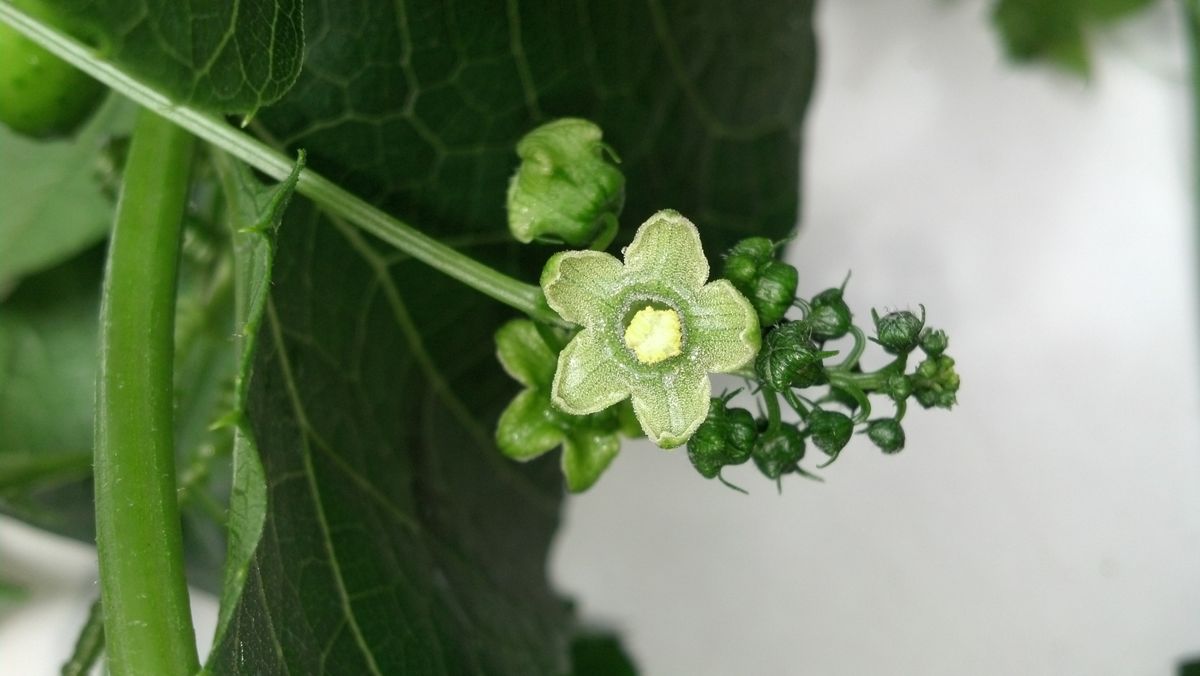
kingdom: Plantae
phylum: Tracheophyta
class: Magnoliopsida
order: Cucurbitales
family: Cucurbitaceae
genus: Parasicyos
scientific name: Parasicyos maculatus
